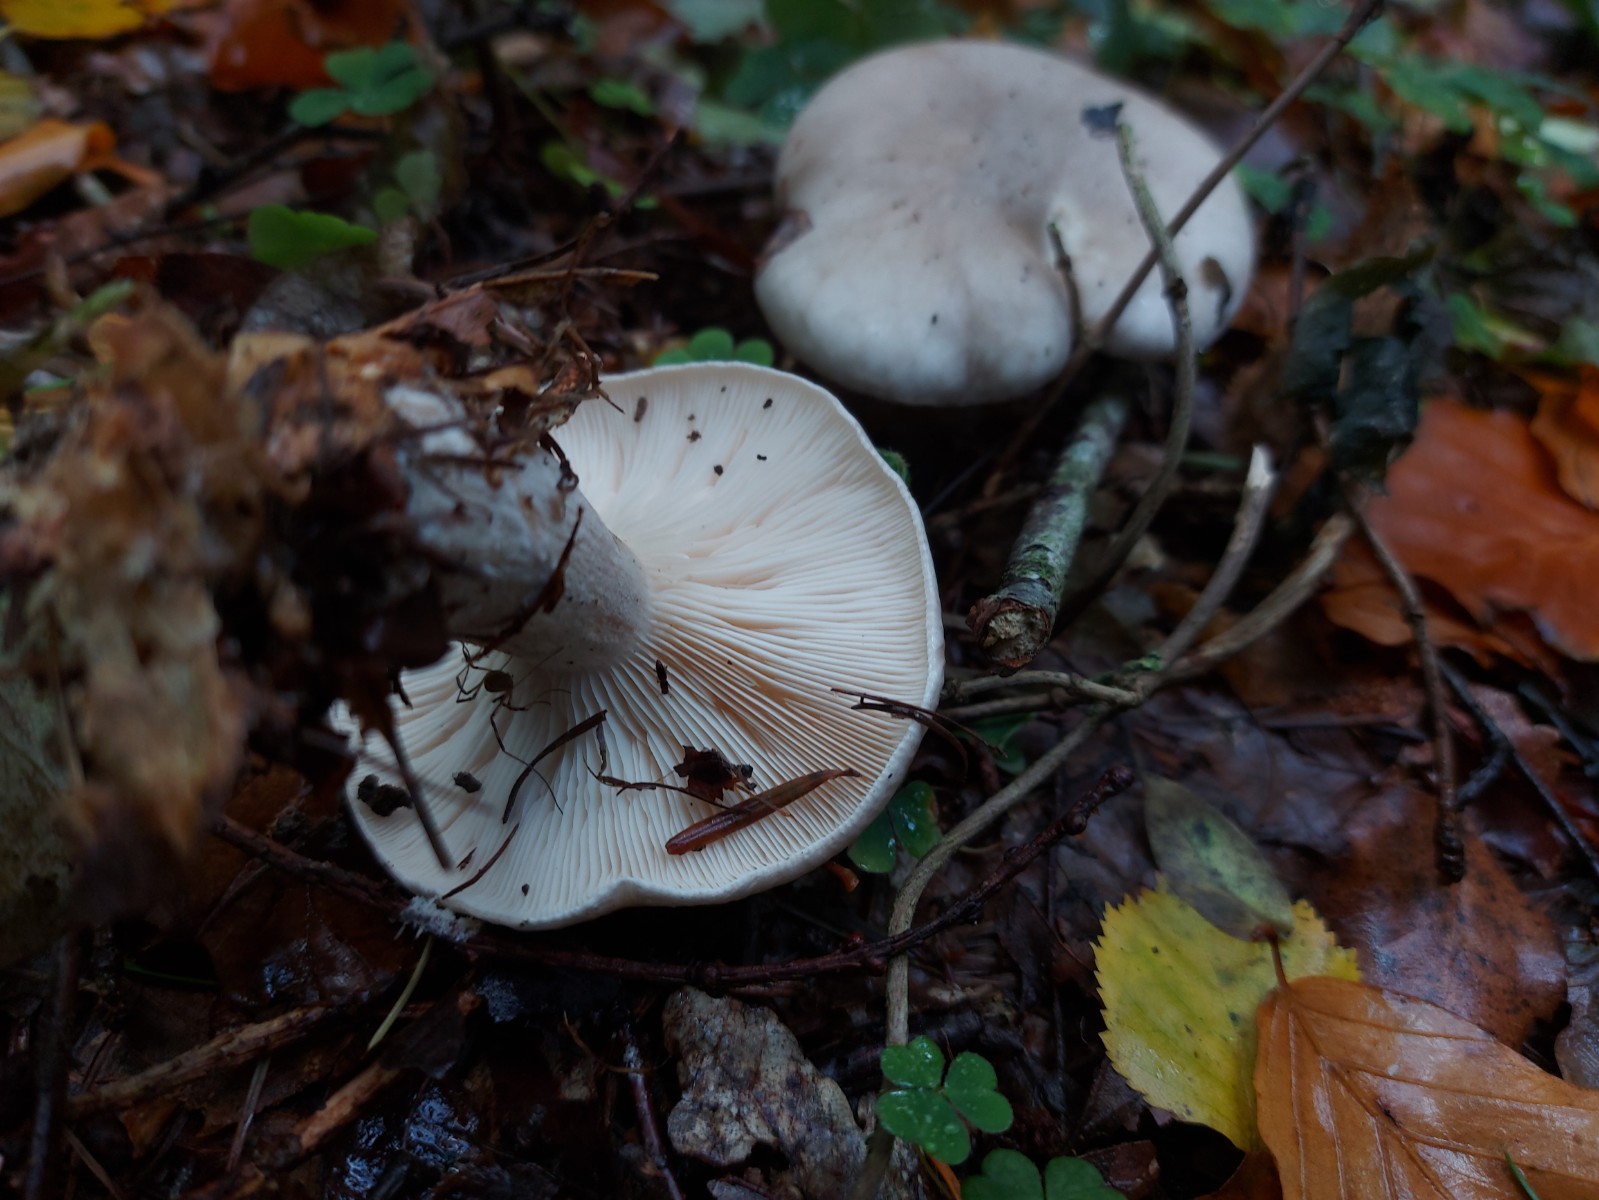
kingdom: Fungi
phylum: Basidiomycota
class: Agaricomycetes
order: Agaricales
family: Tricholomataceae
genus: Clitocybe
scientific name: Clitocybe nebularis
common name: tåge-tragthat
